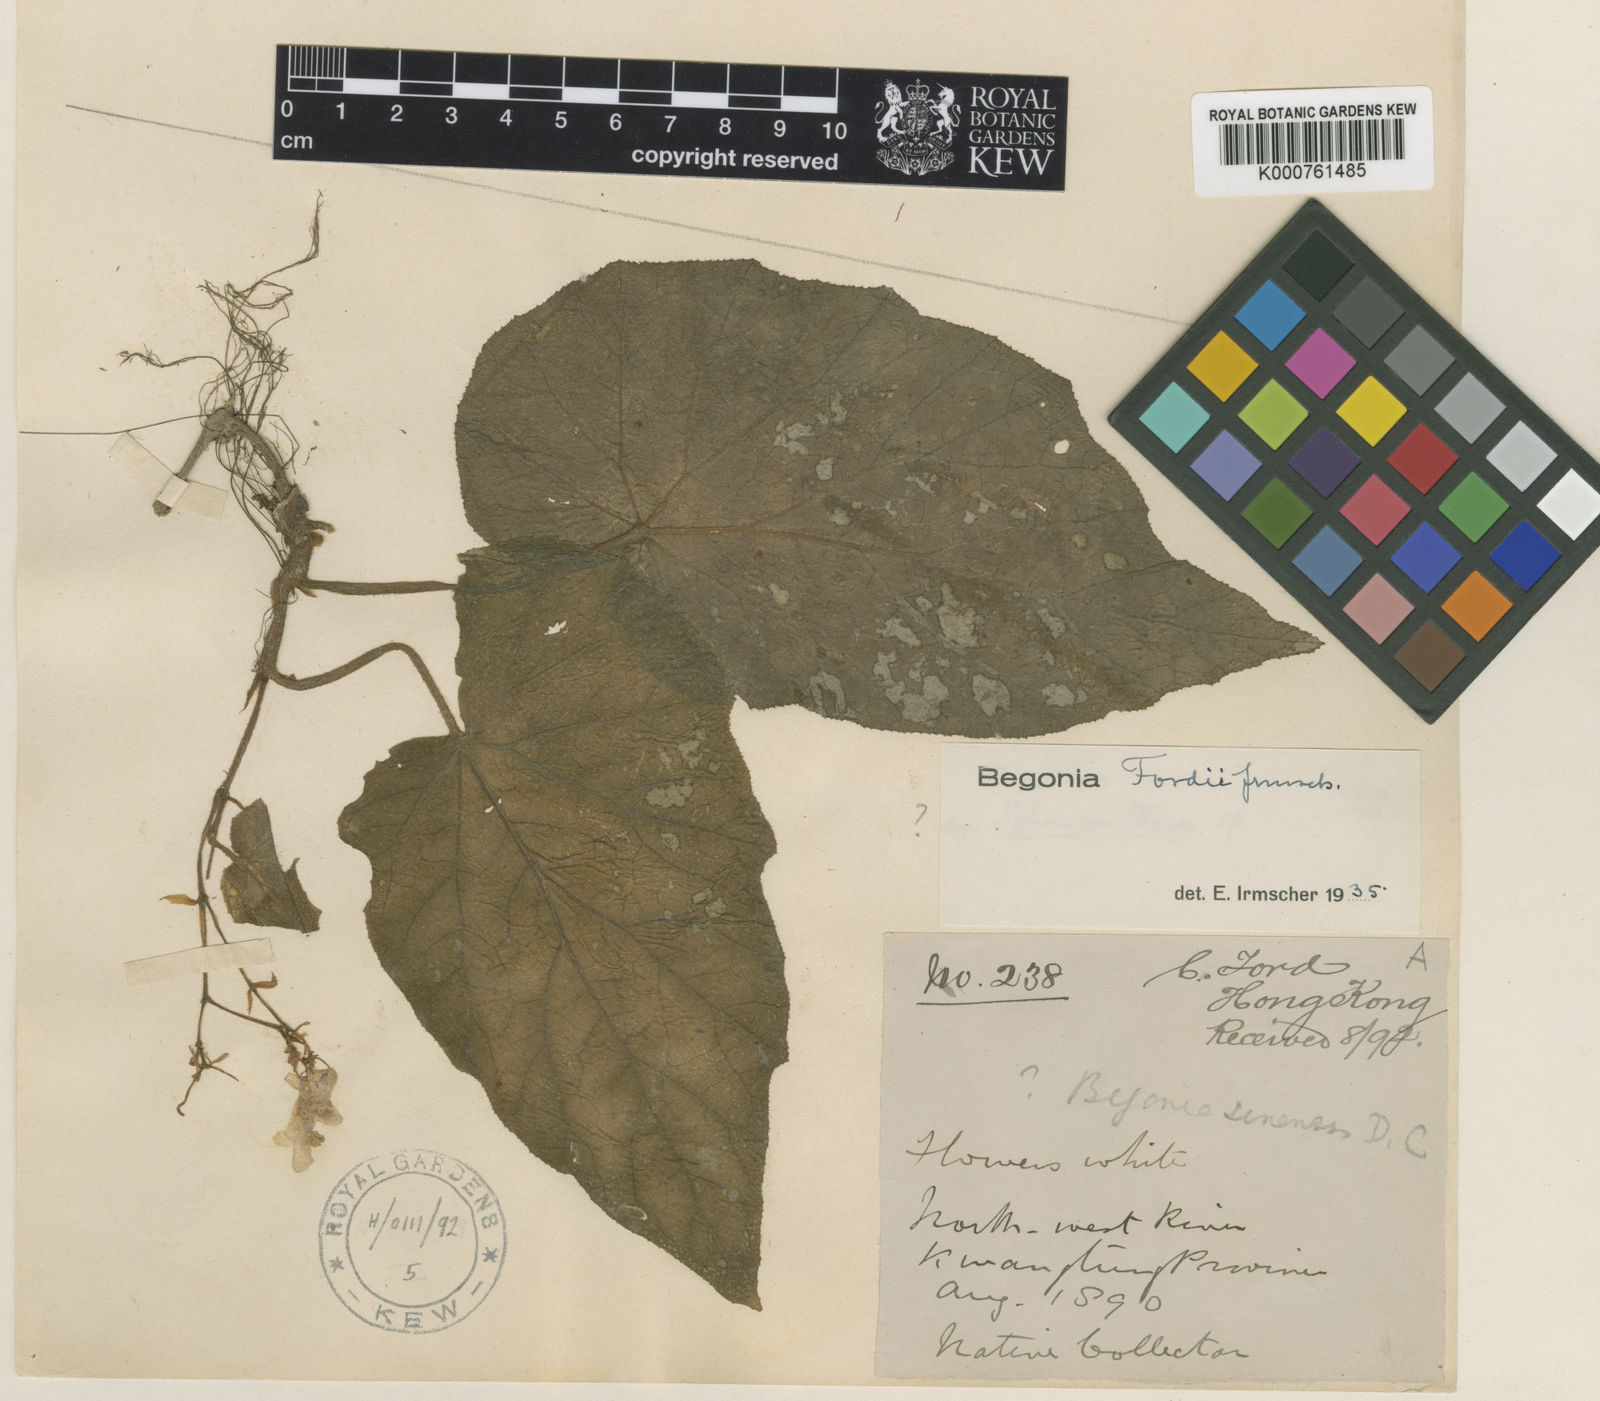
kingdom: Plantae
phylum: Tracheophyta
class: Magnoliopsida
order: Cucurbitales
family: Begoniaceae
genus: Begonia
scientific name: Begonia fordii
